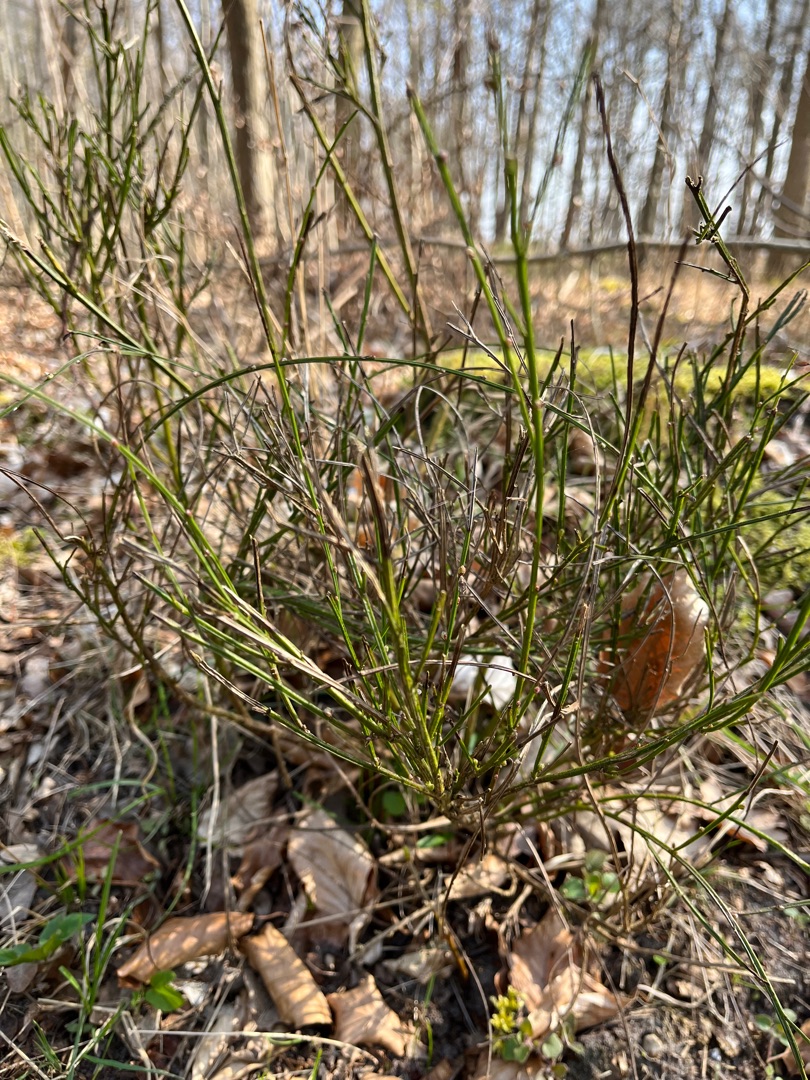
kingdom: Plantae
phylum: Tracheophyta
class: Magnoliopsida
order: Fabales
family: Fabaceae
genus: Cytisus
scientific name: Cytisus scoparius
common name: Almindelig gyvel
